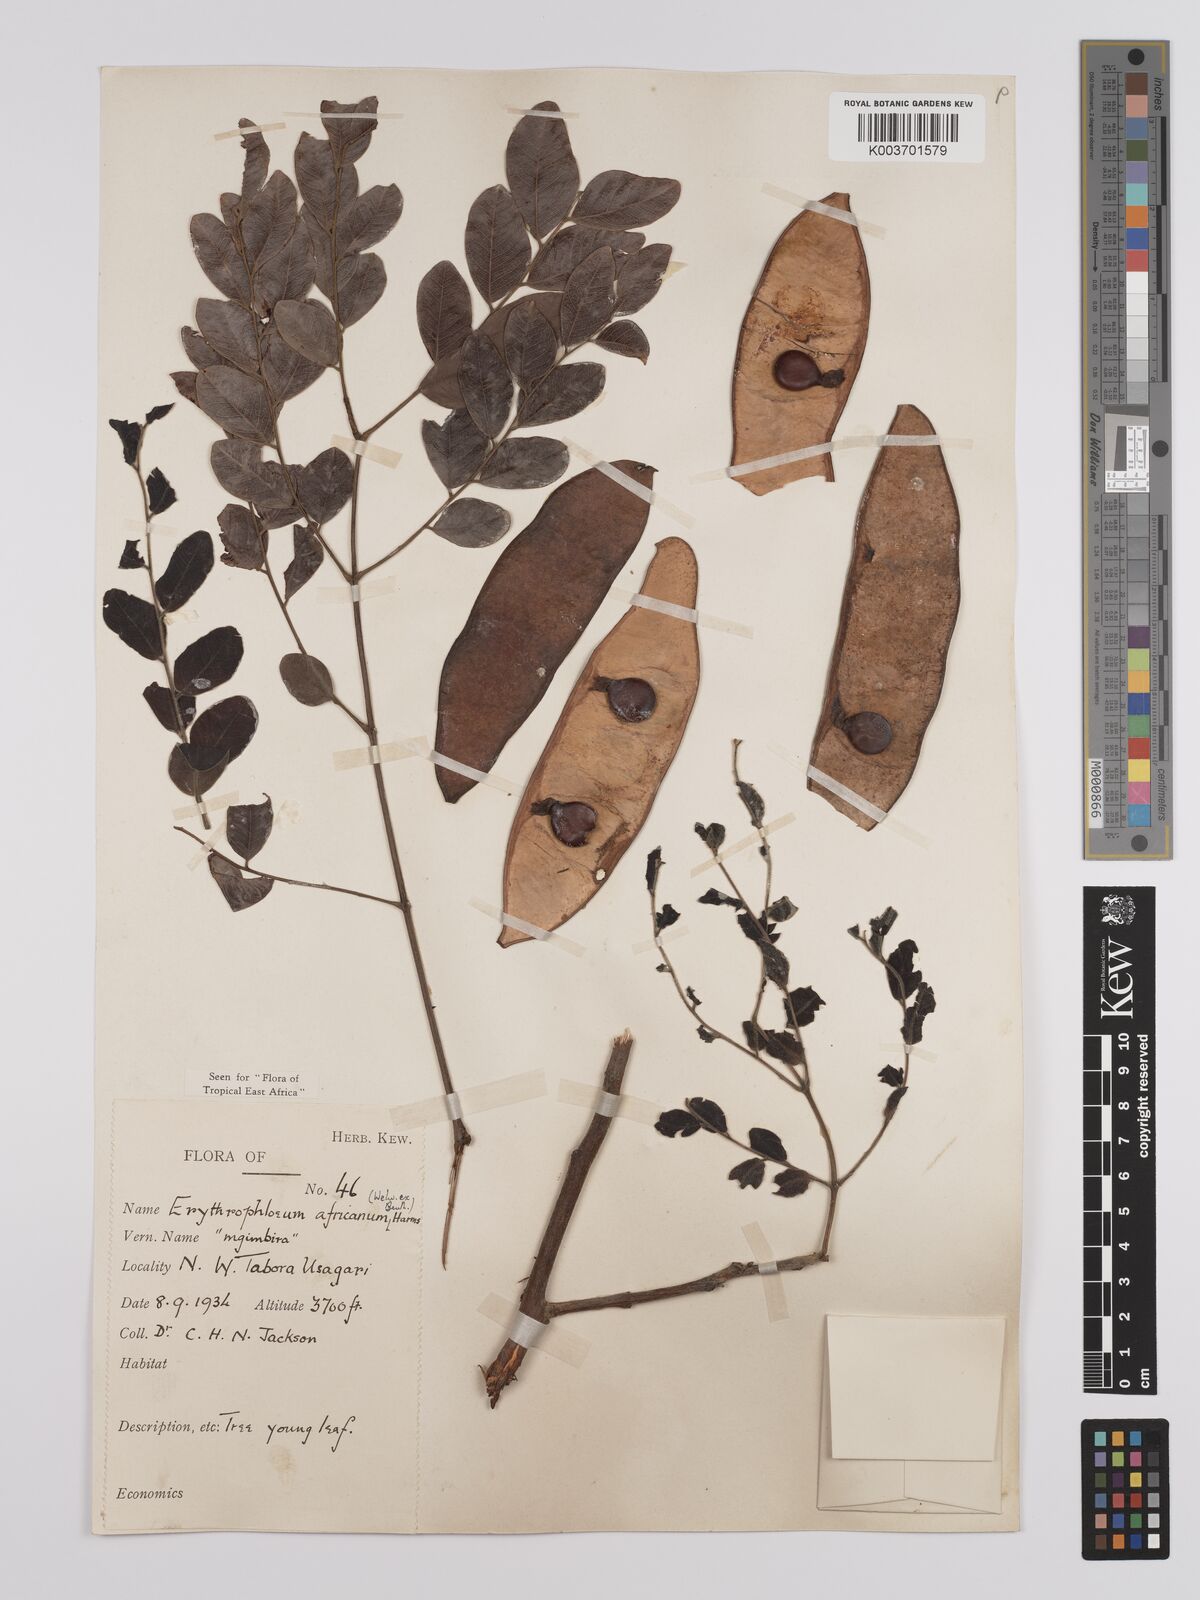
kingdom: Plantae
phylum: Tracheophyta
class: Magnoliopsida
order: Fabales
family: Fabaceae
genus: Erythrophleum
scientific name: Erythrophleum africanum
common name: African blackwood
